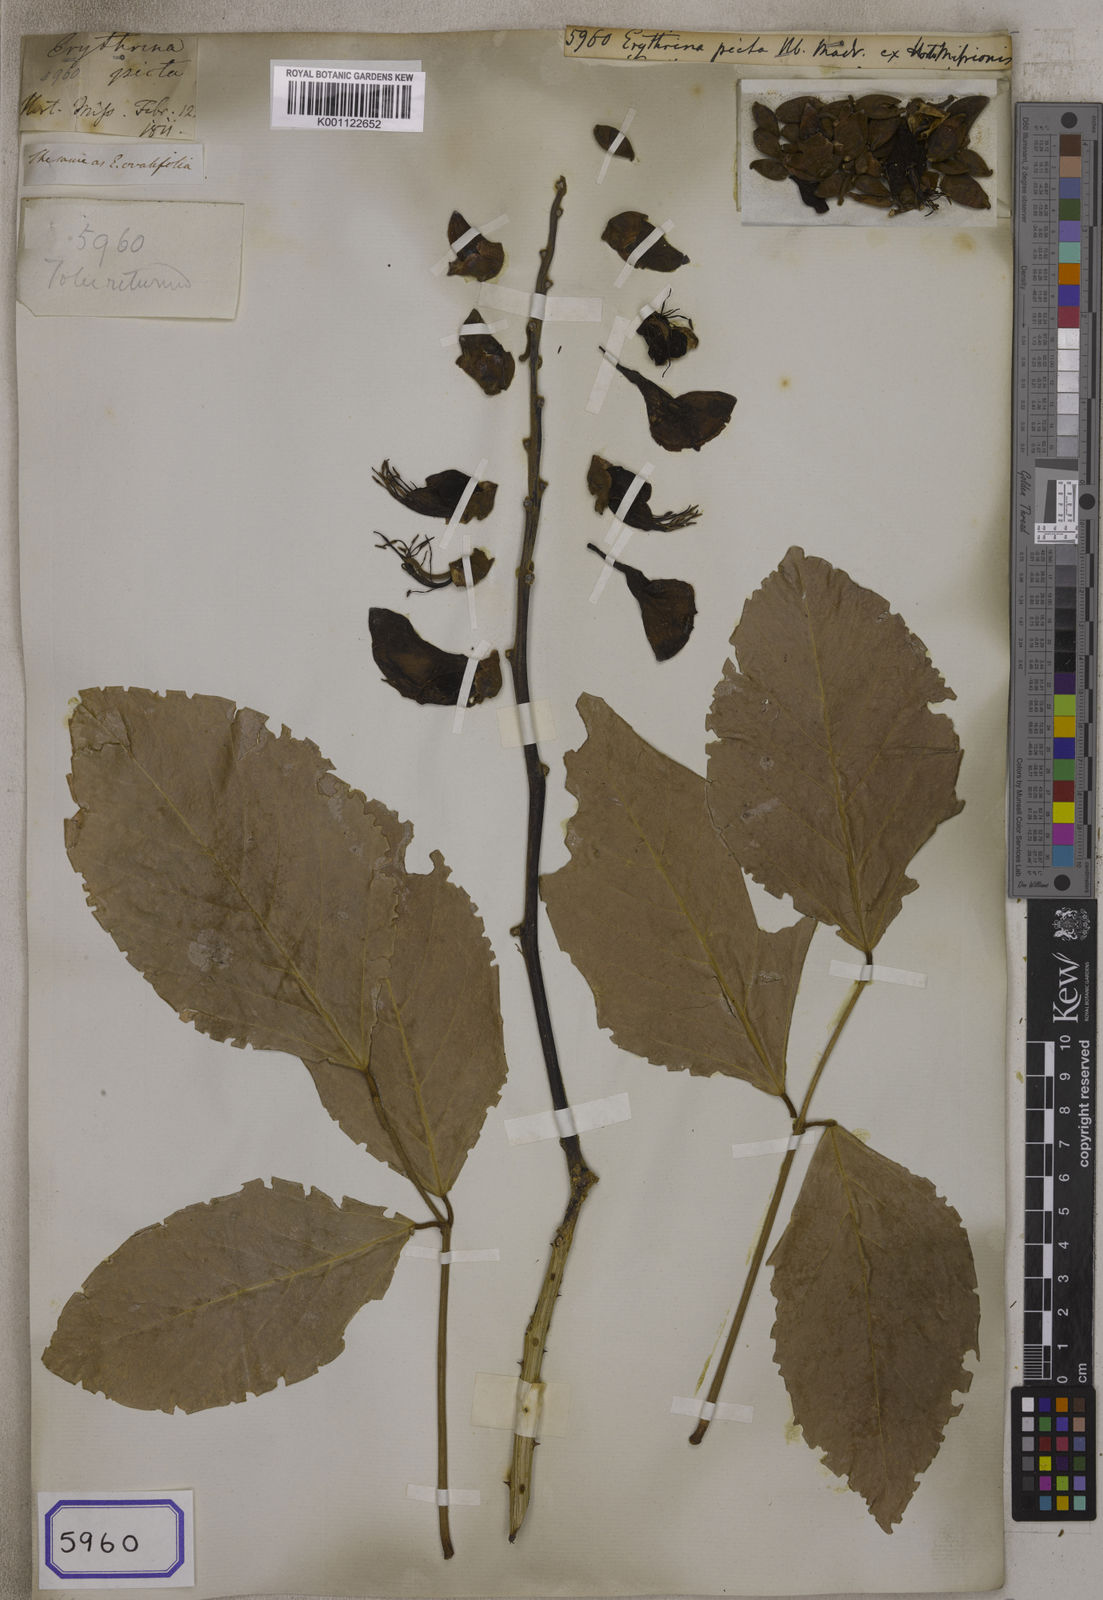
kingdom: Plantae
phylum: Tracheophyta
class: Magnoliopsida
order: Fabales
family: Fabaceae
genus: Erythrina
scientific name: Erythrina
